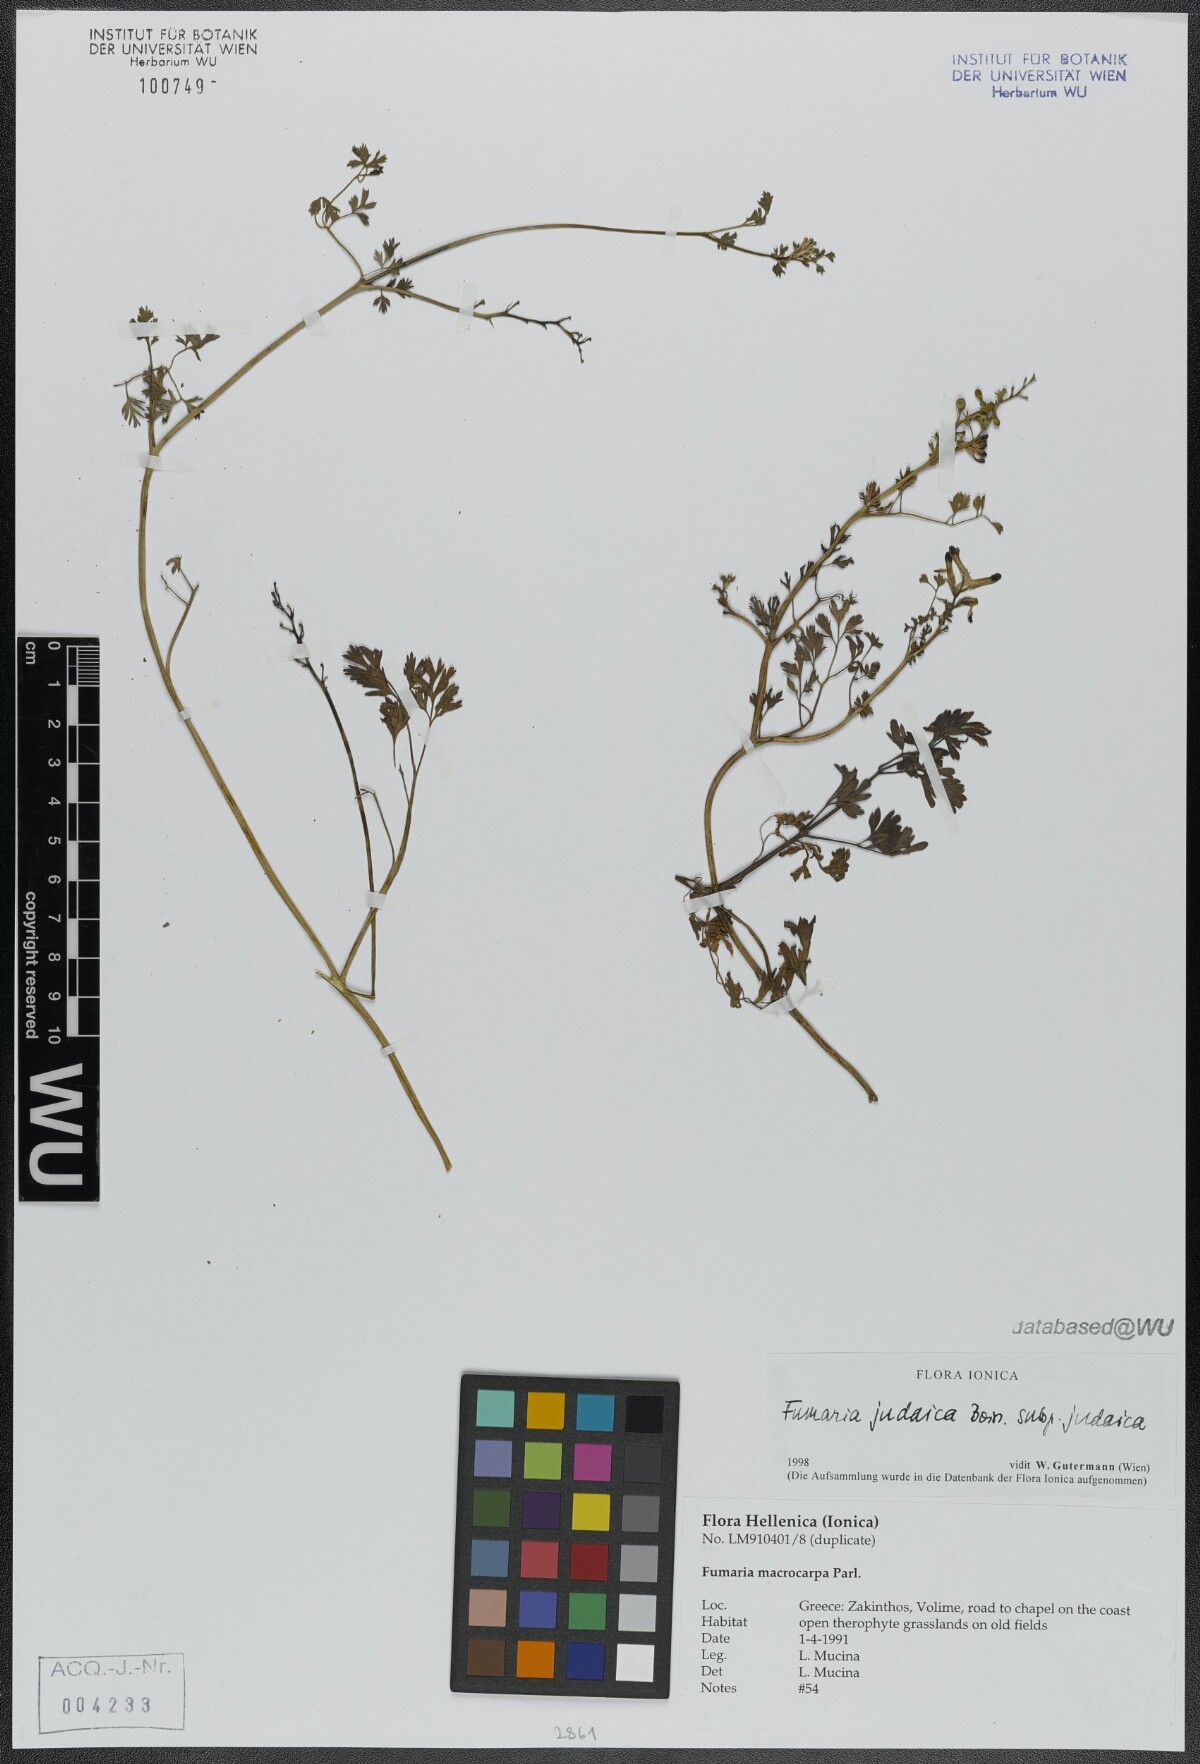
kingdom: Plantae
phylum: Tracheophyta
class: Magnoliopsida
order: Ranunculales
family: Papaveraceae
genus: Fumaria
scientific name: Fumaria judaica
